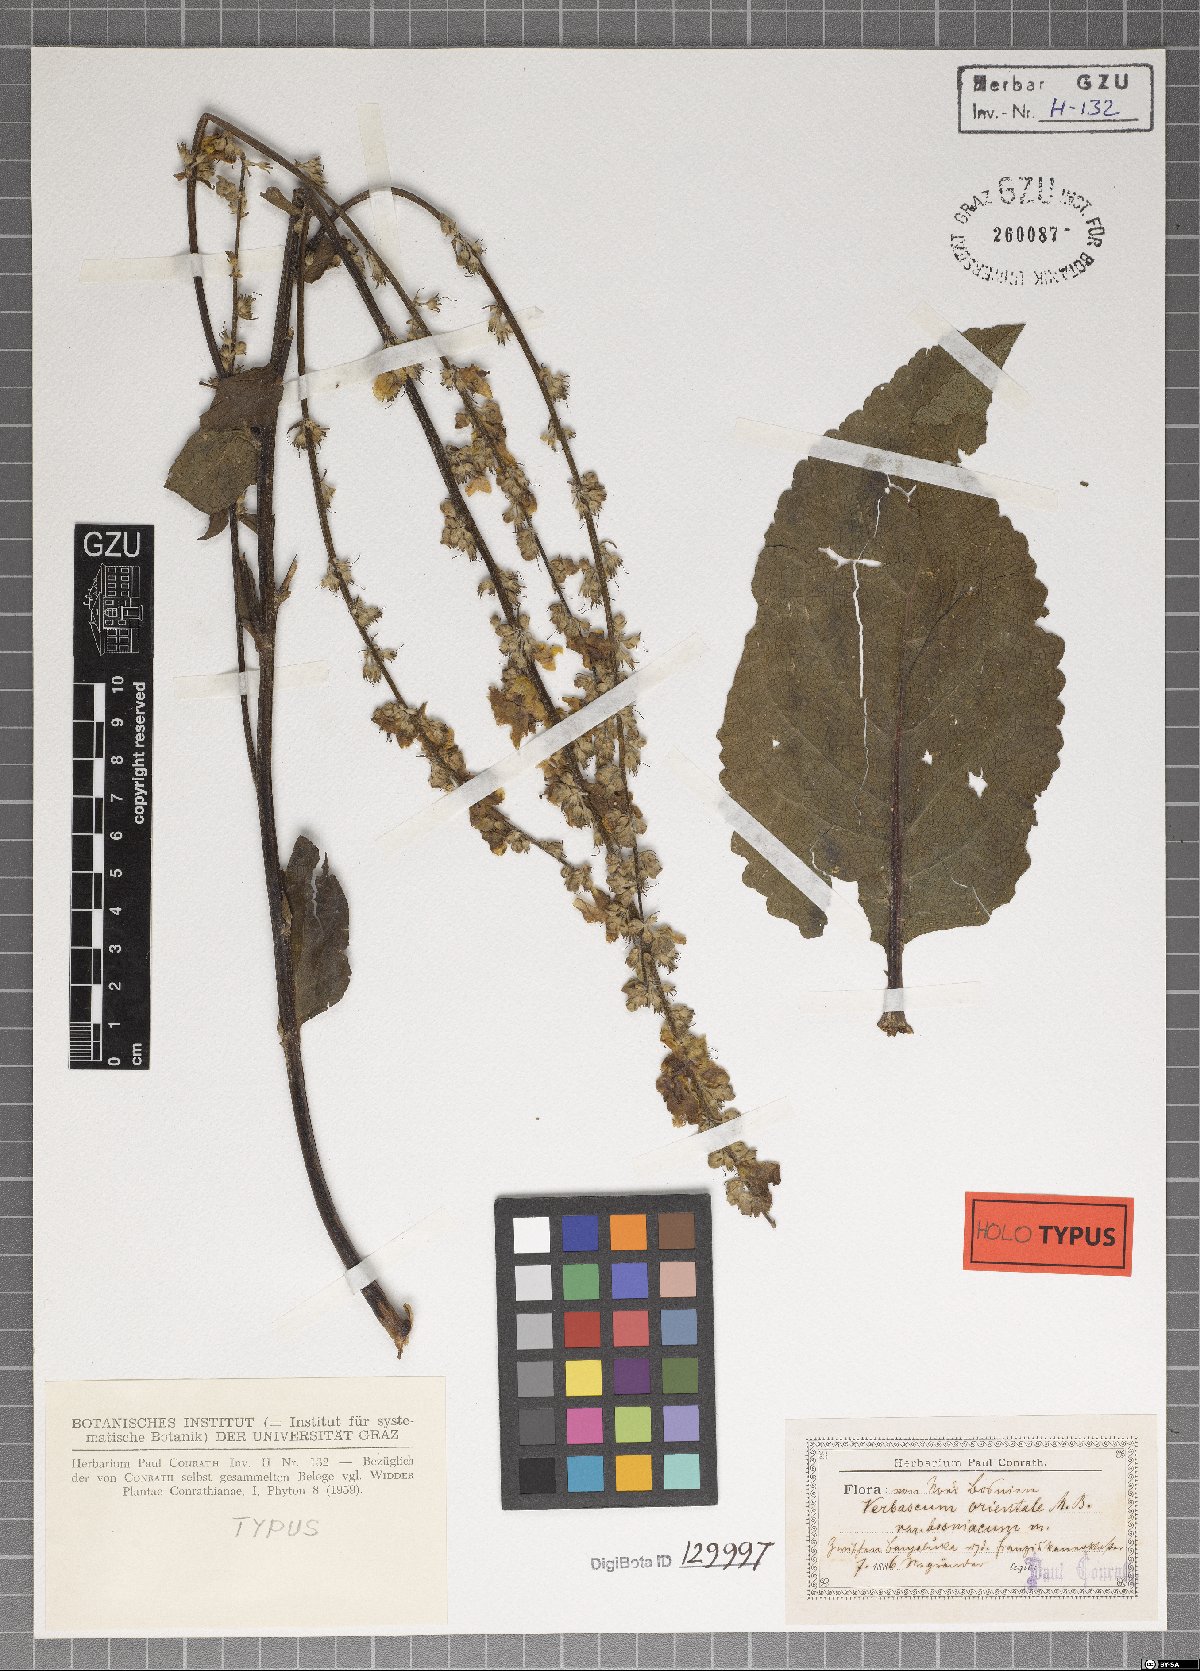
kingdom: Plantae
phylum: Tracheophyta
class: Magnoliopsida
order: Lamiales
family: Scrophulariaceae
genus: Verbascum
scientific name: Verbascum orientale
